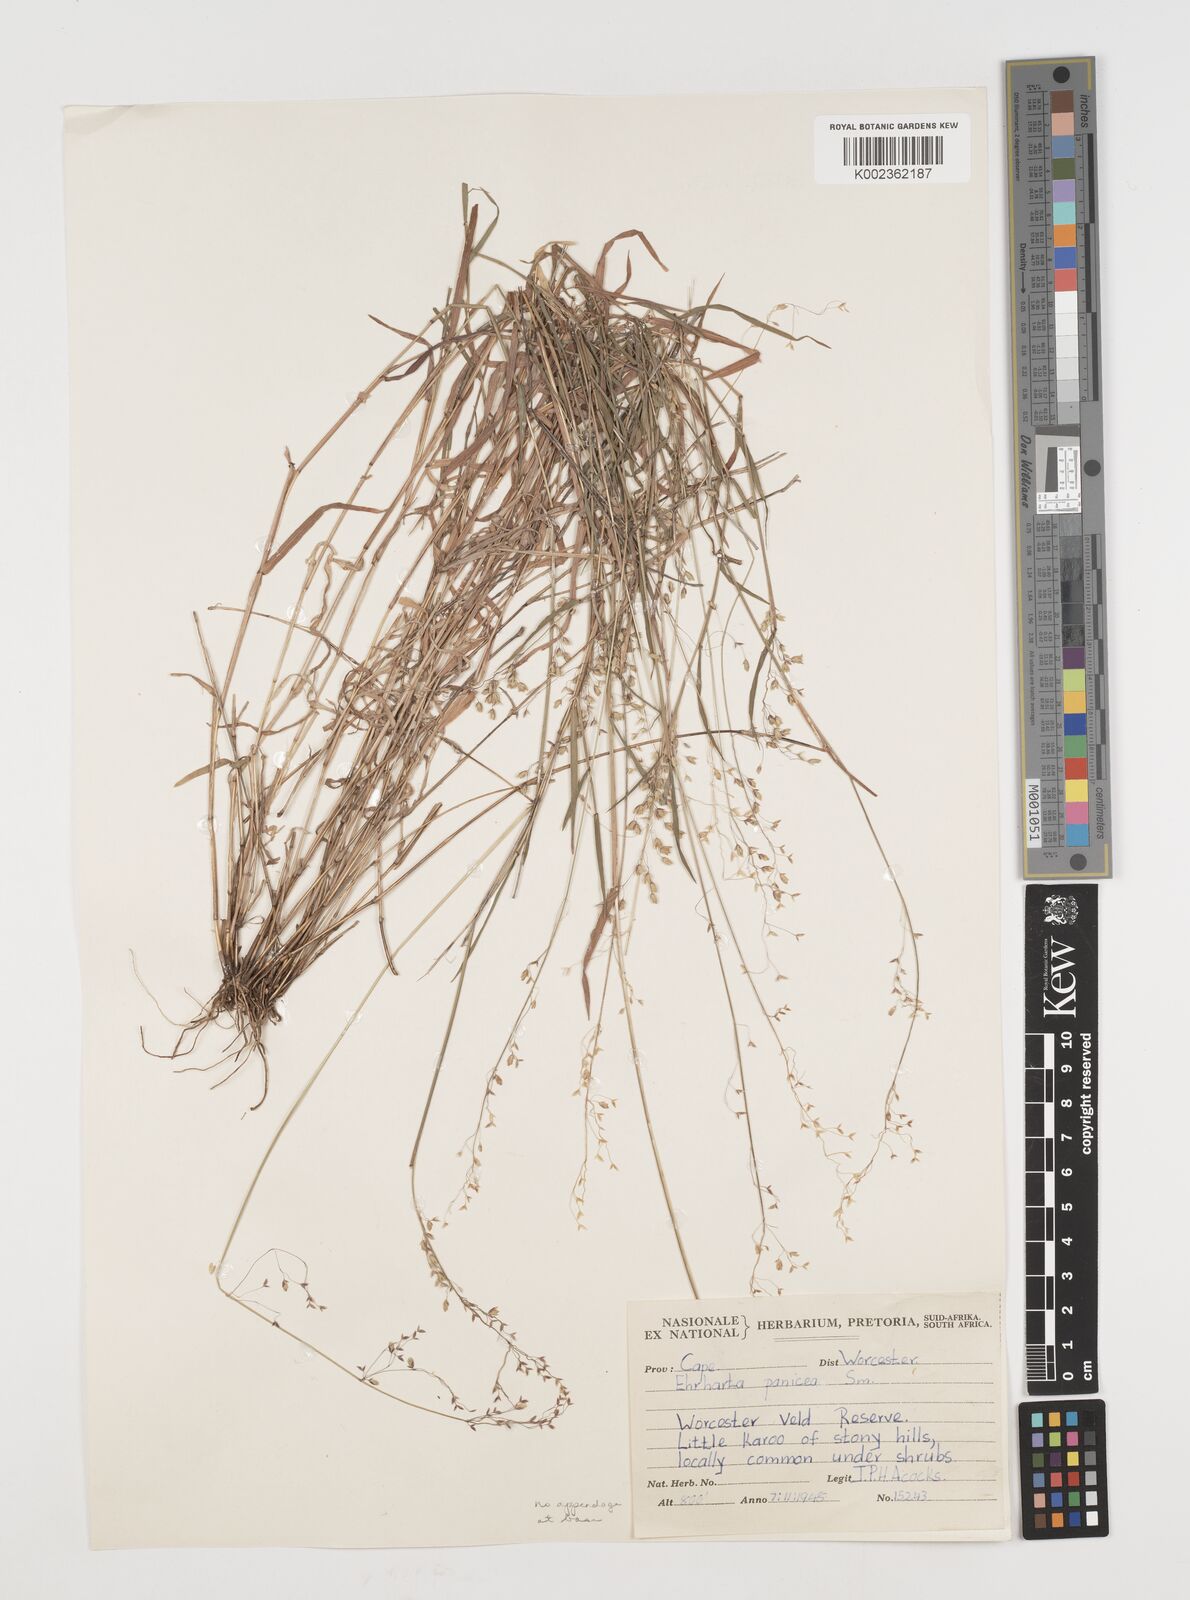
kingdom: Plantae
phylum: Tracheophyta
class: Liliopsida
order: Poales
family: Poaceae
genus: Ehrharta
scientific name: Ehrharta
